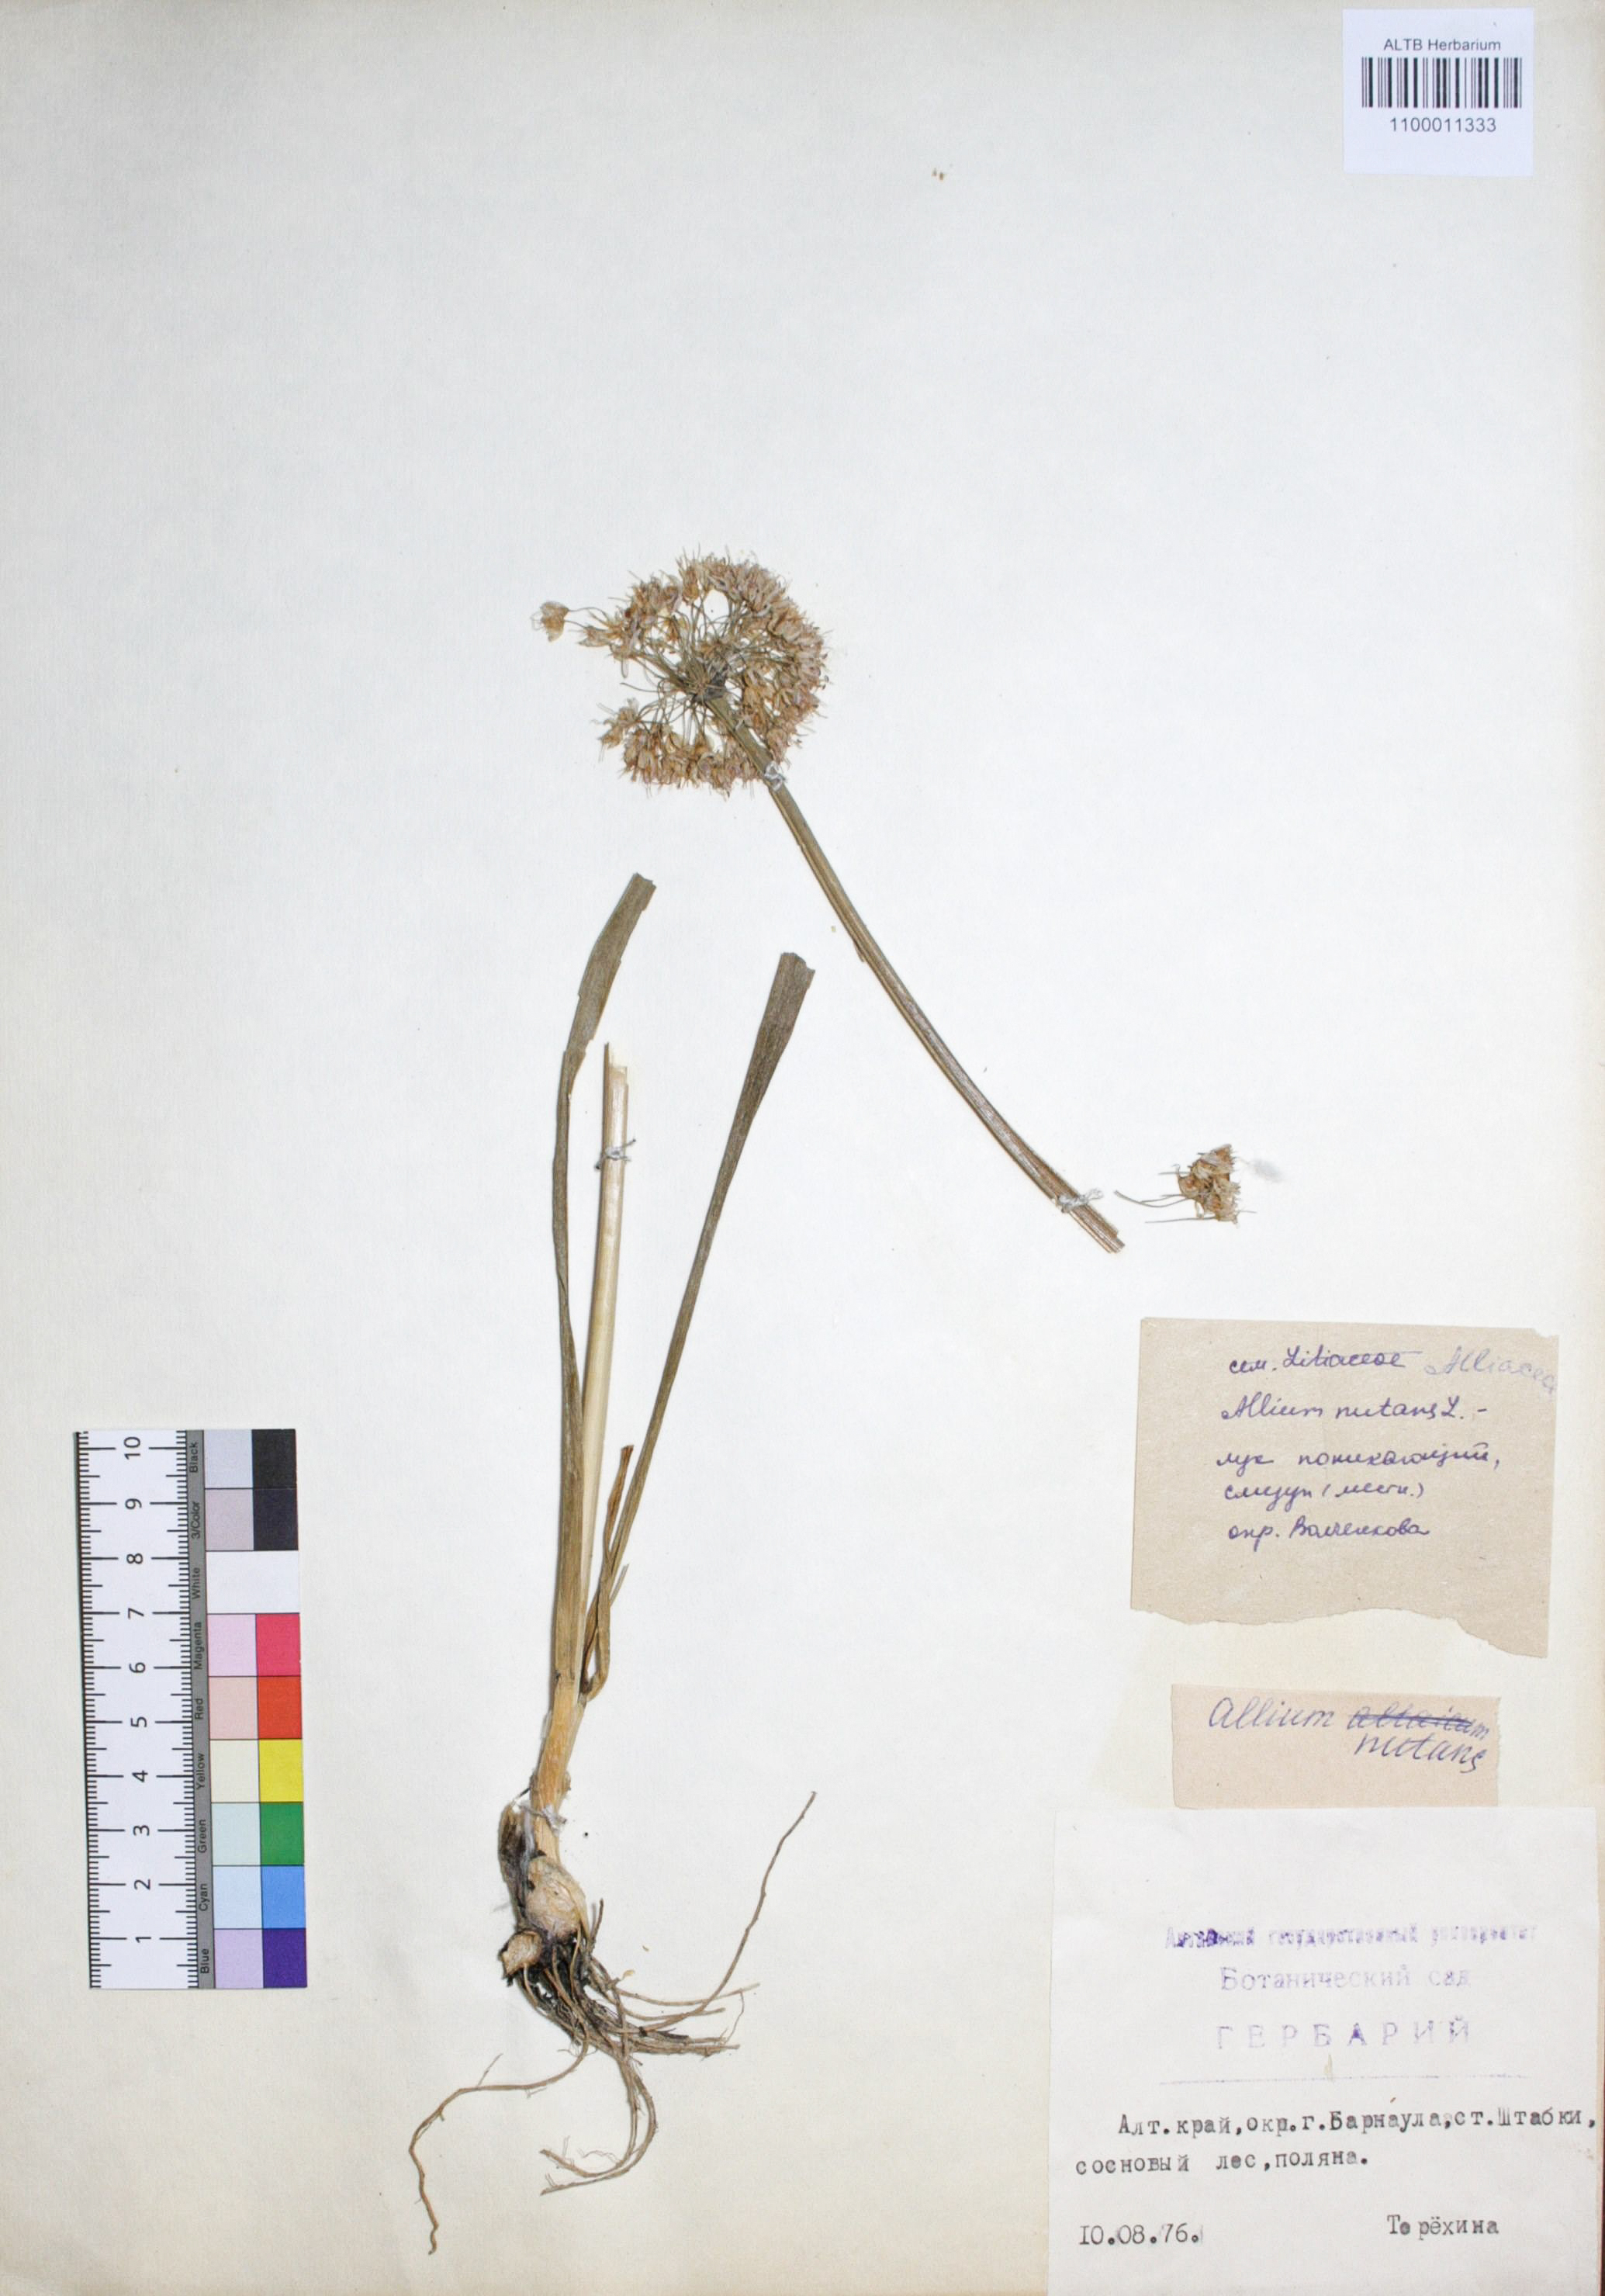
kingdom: Plantae
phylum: Tracheophyta
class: Liliopsida
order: Asparagales
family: Amaryllidaceae
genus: Allium
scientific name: Allium nutans
